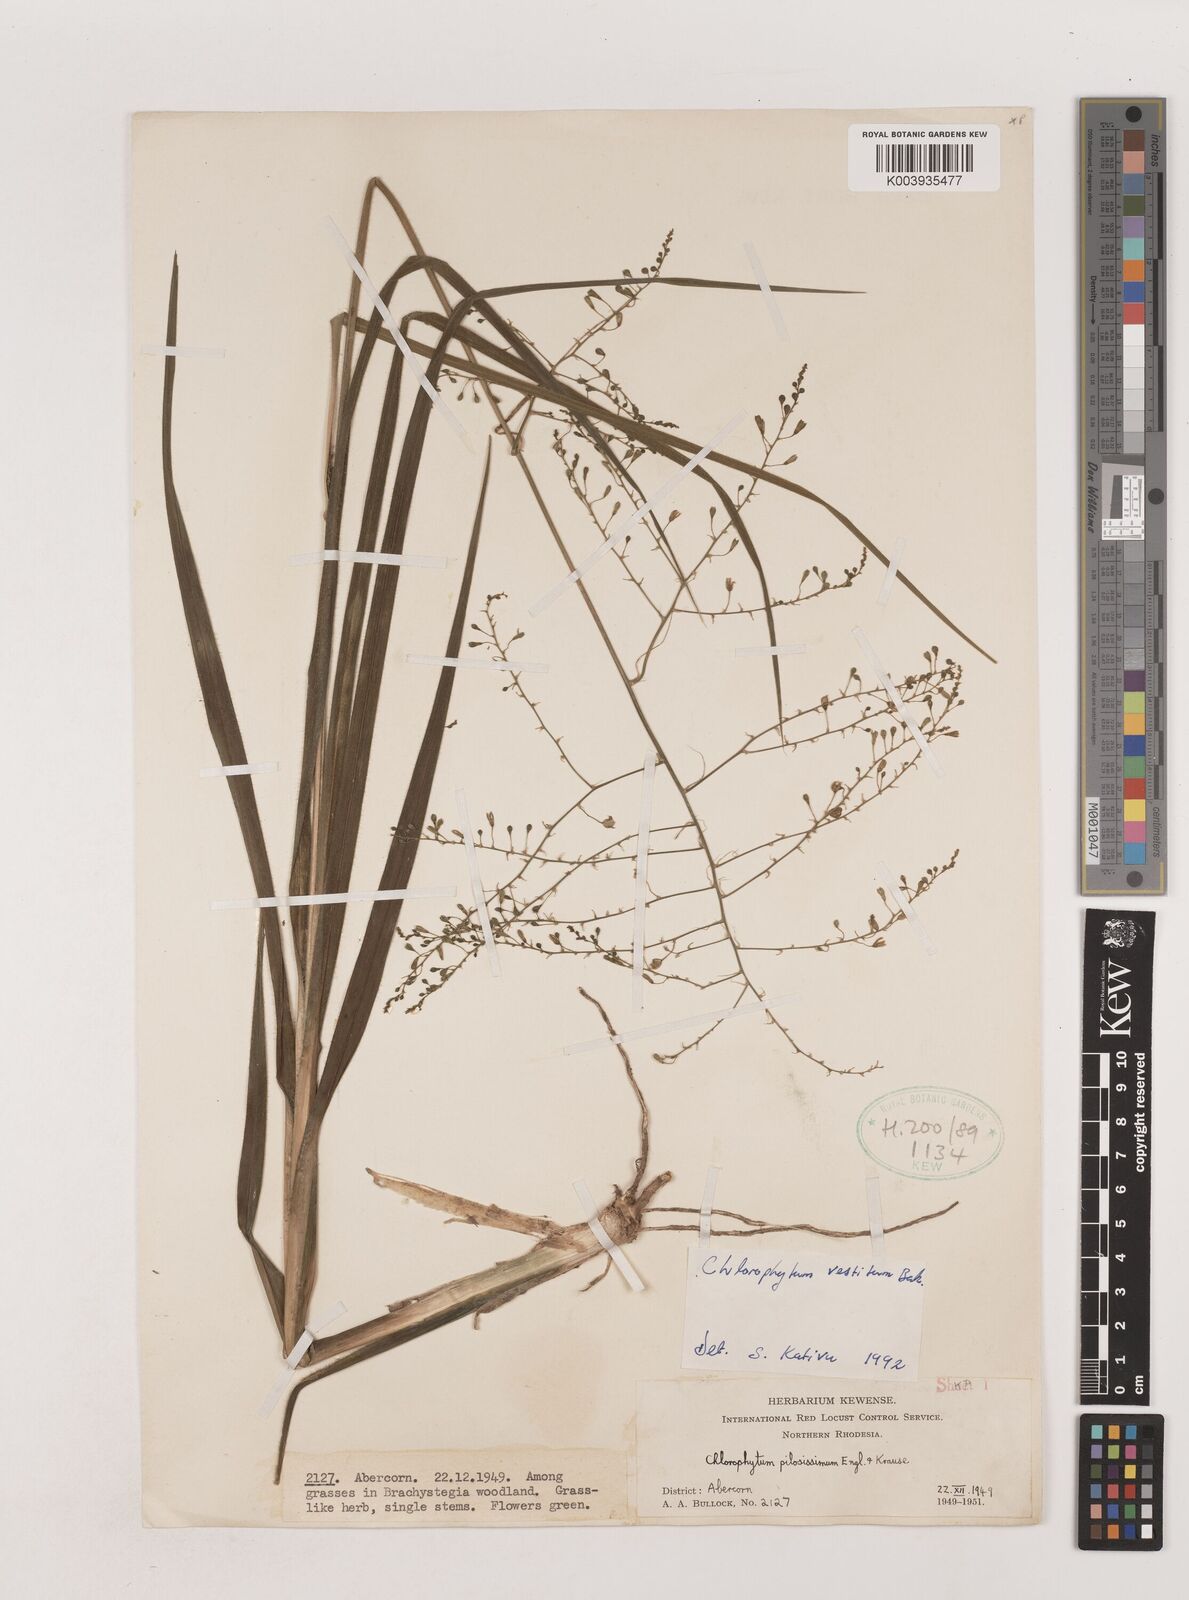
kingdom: Plantae
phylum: Tracheophyta
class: Liliopsida
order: Asparagales
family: Asparagaceae
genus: Chlorophytum
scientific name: Chlorophytum vestitum
